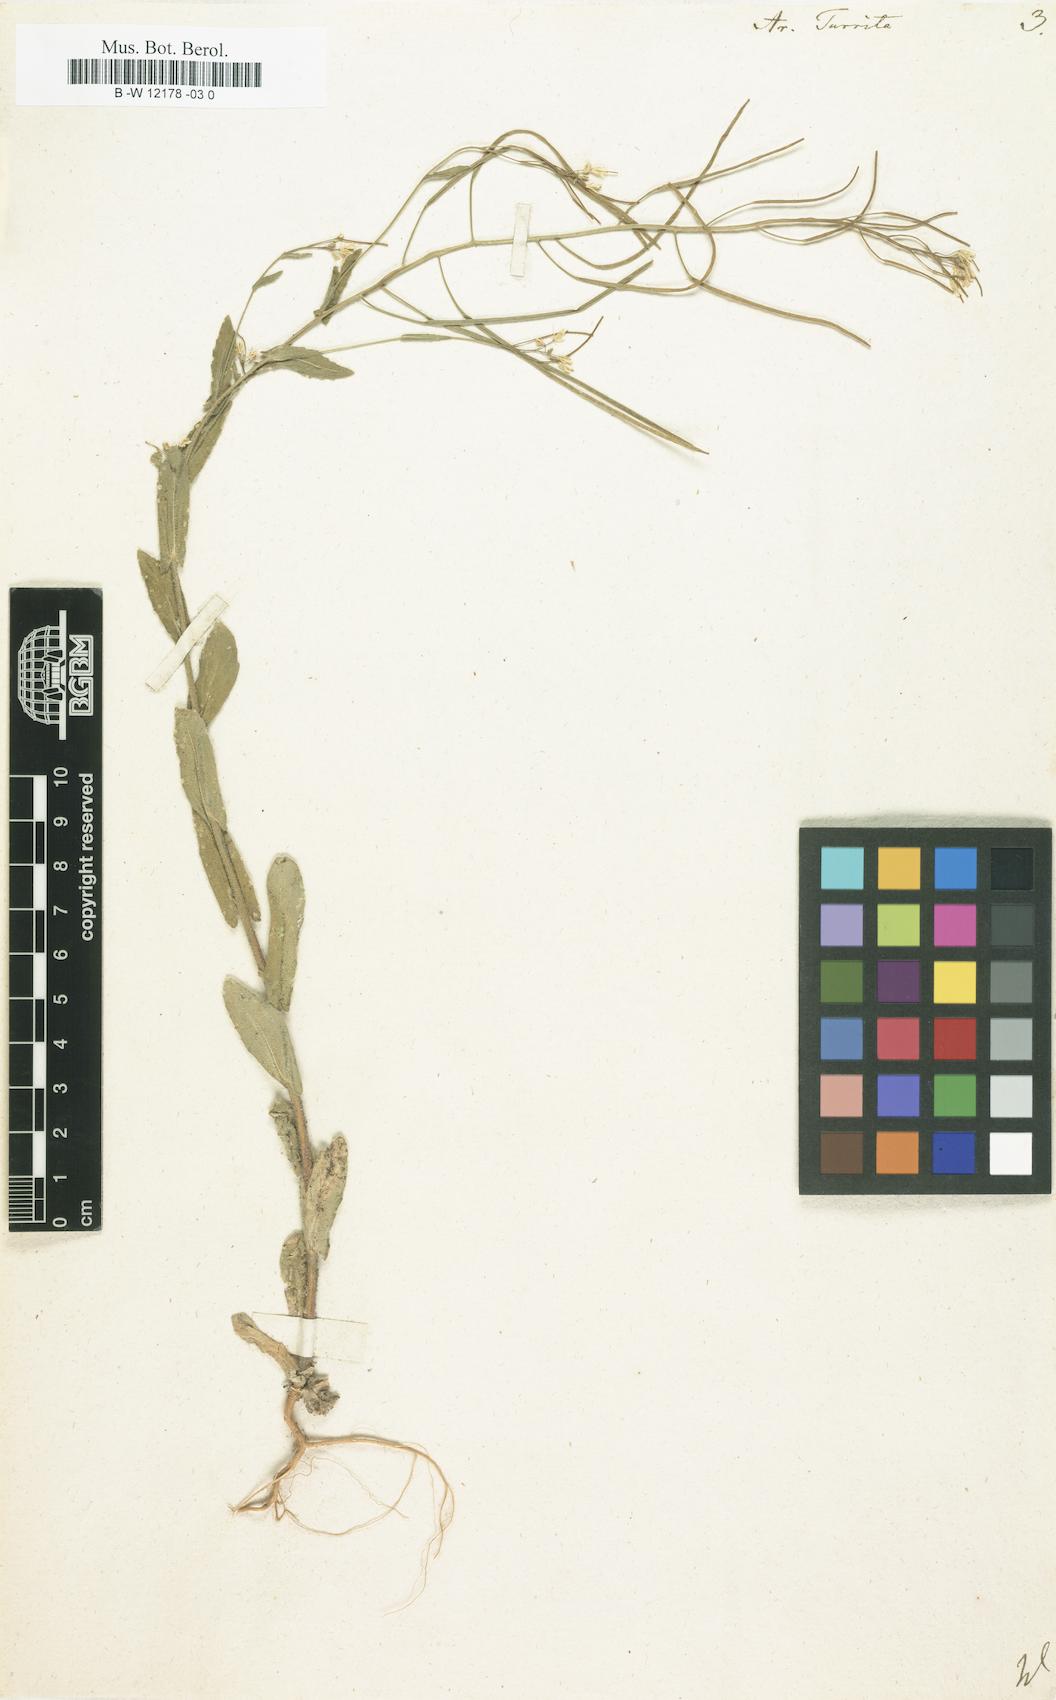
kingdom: Plantae
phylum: Tracheophyta
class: Magnoliopsida
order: Brassicales
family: Brassicaceae
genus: Pseudoturritis
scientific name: Pseudoturritis turrita
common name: Tower cress
